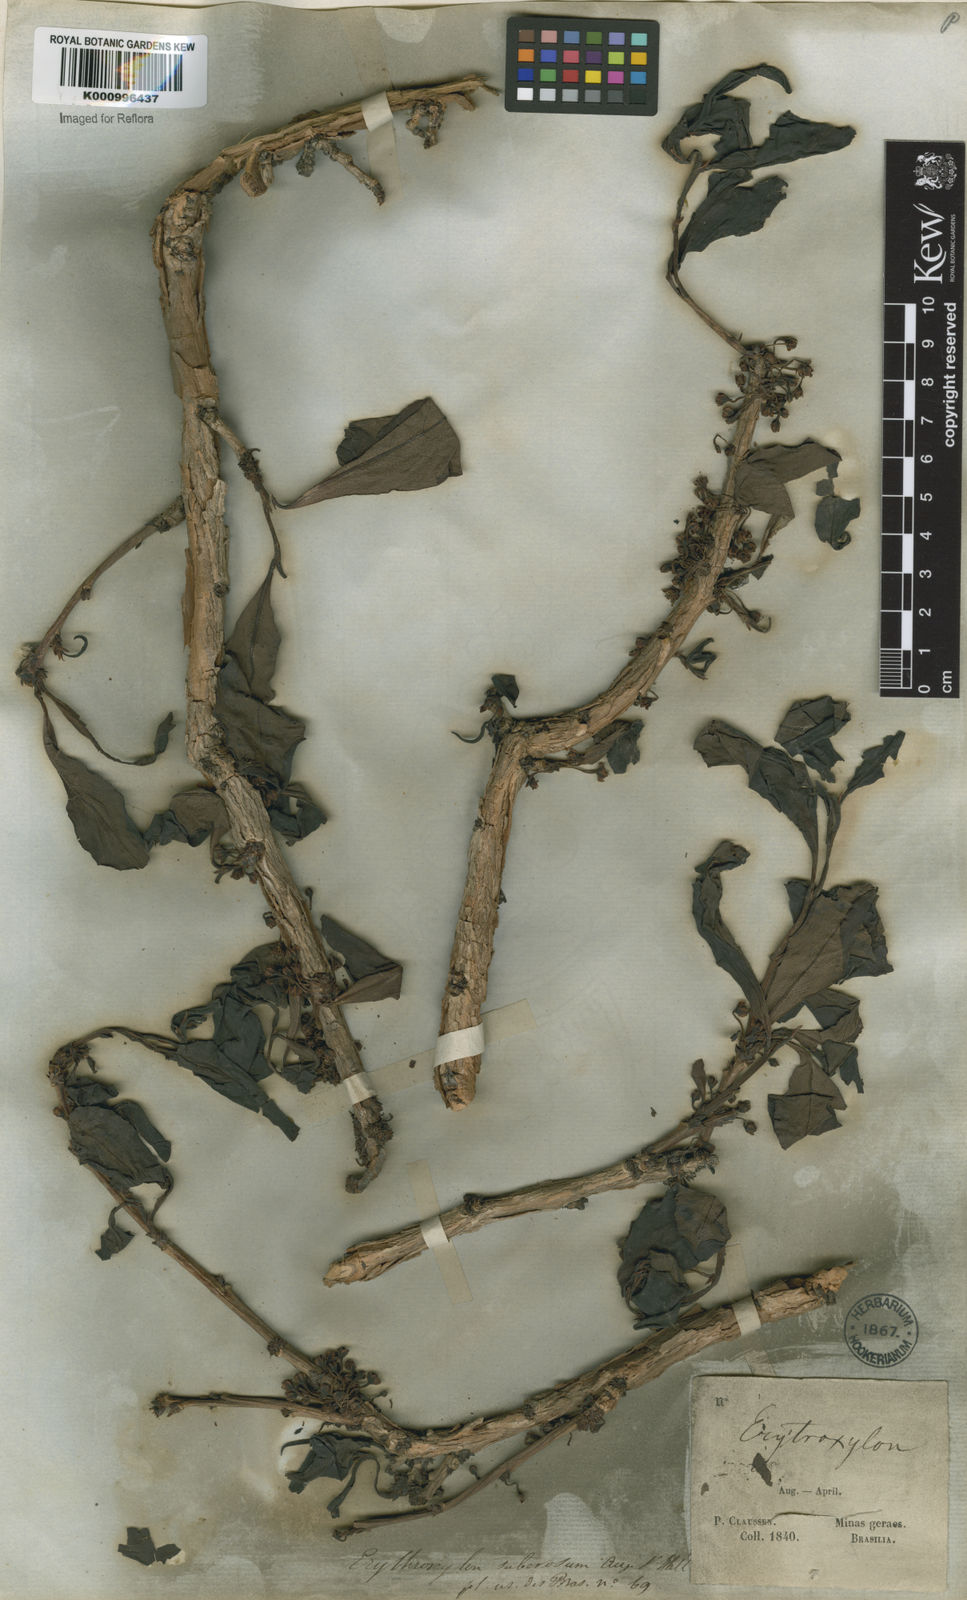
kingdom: Plantae
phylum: Tracheophyta
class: Magnoliopsida
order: Malpighiales
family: Erythroxylaceae
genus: Erythroxylum
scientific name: Erythroxylum suberosum
